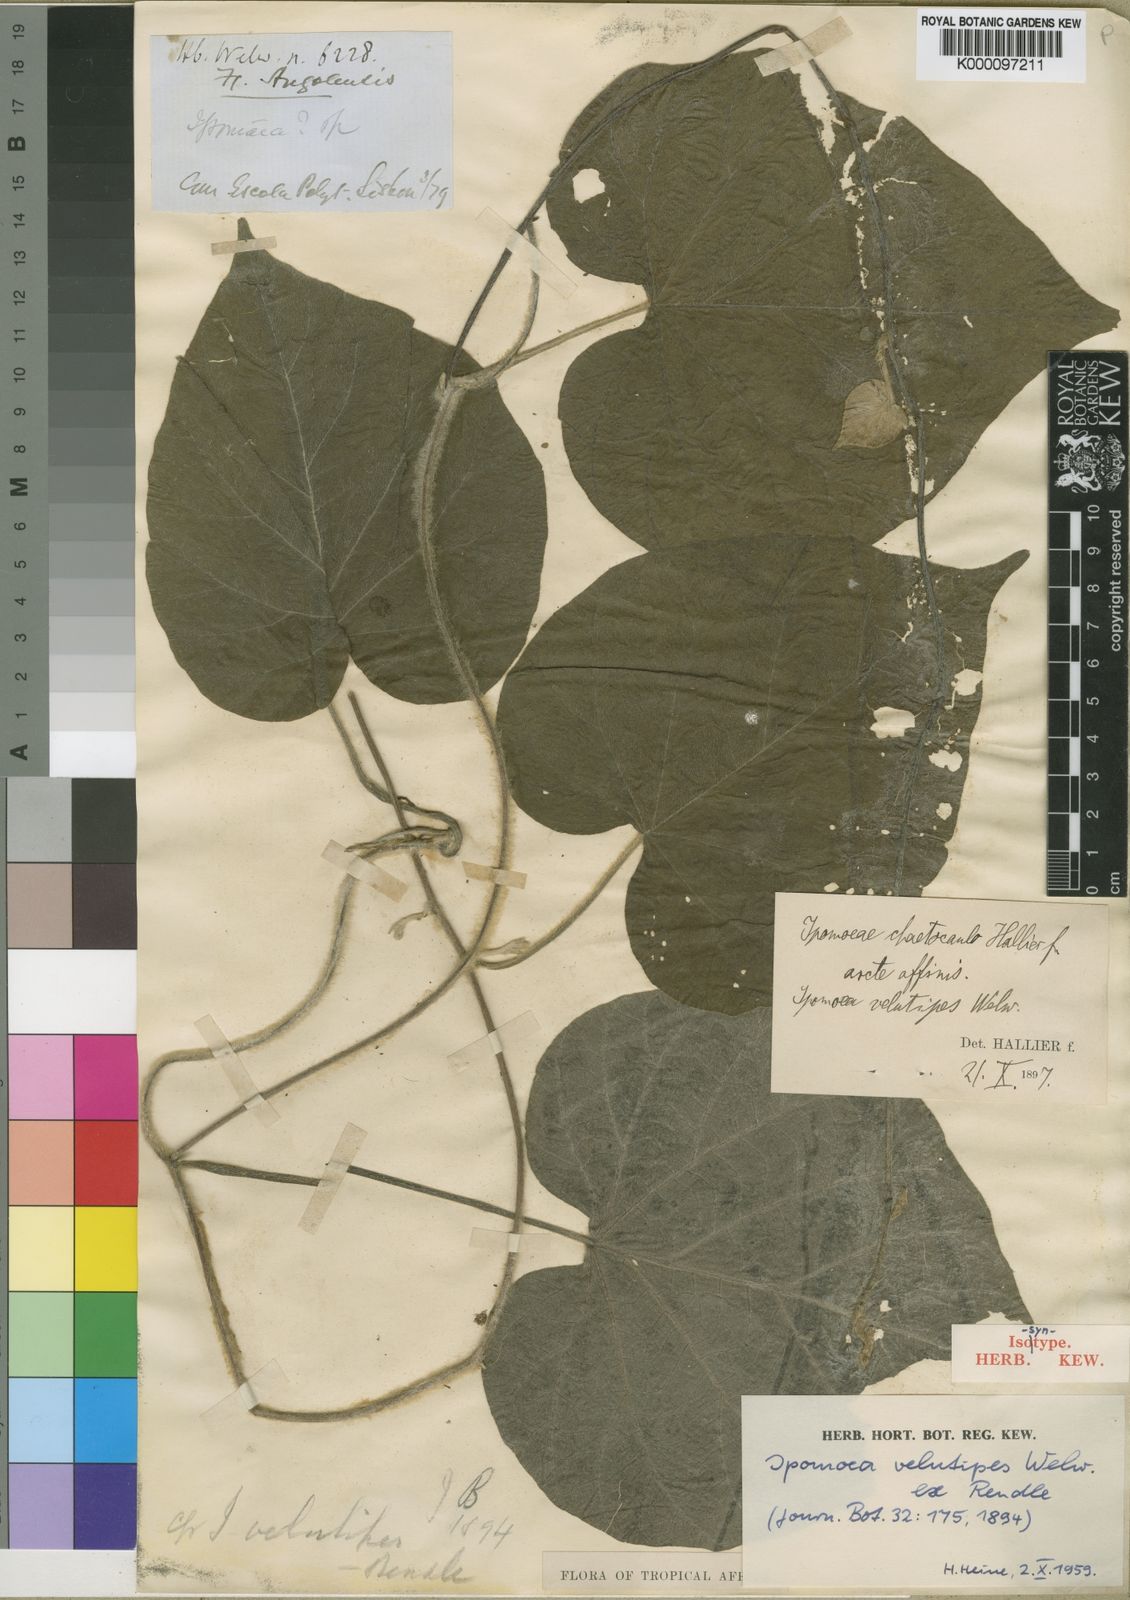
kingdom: Plantae
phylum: Tracheophyta
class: Magnoliopsida
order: Solanales
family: Convolvulaceae
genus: Ipomoea
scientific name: Ipomoea chrysochaetia
